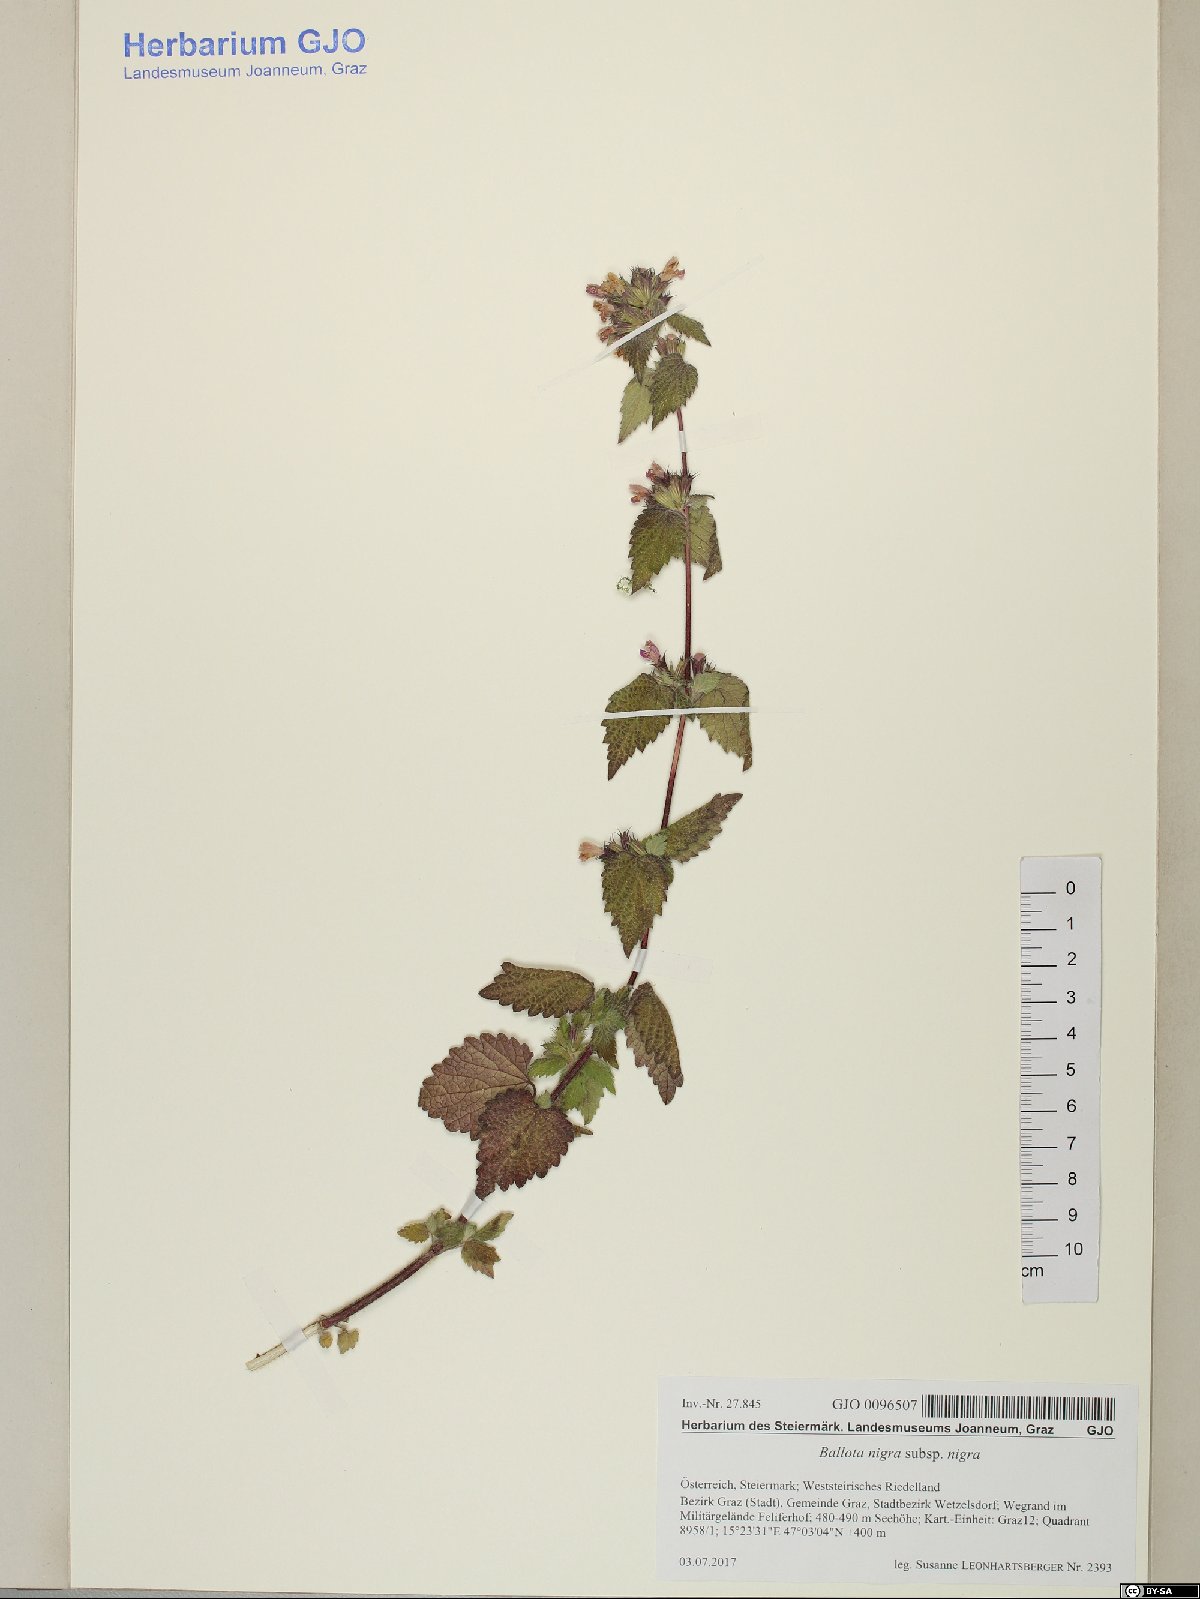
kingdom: Plantae
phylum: Tracheophyta
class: Magnoliopsida
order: Lamiales
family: Lamiaceae
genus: Ballota
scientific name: Ballota nigra
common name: Black horehound
